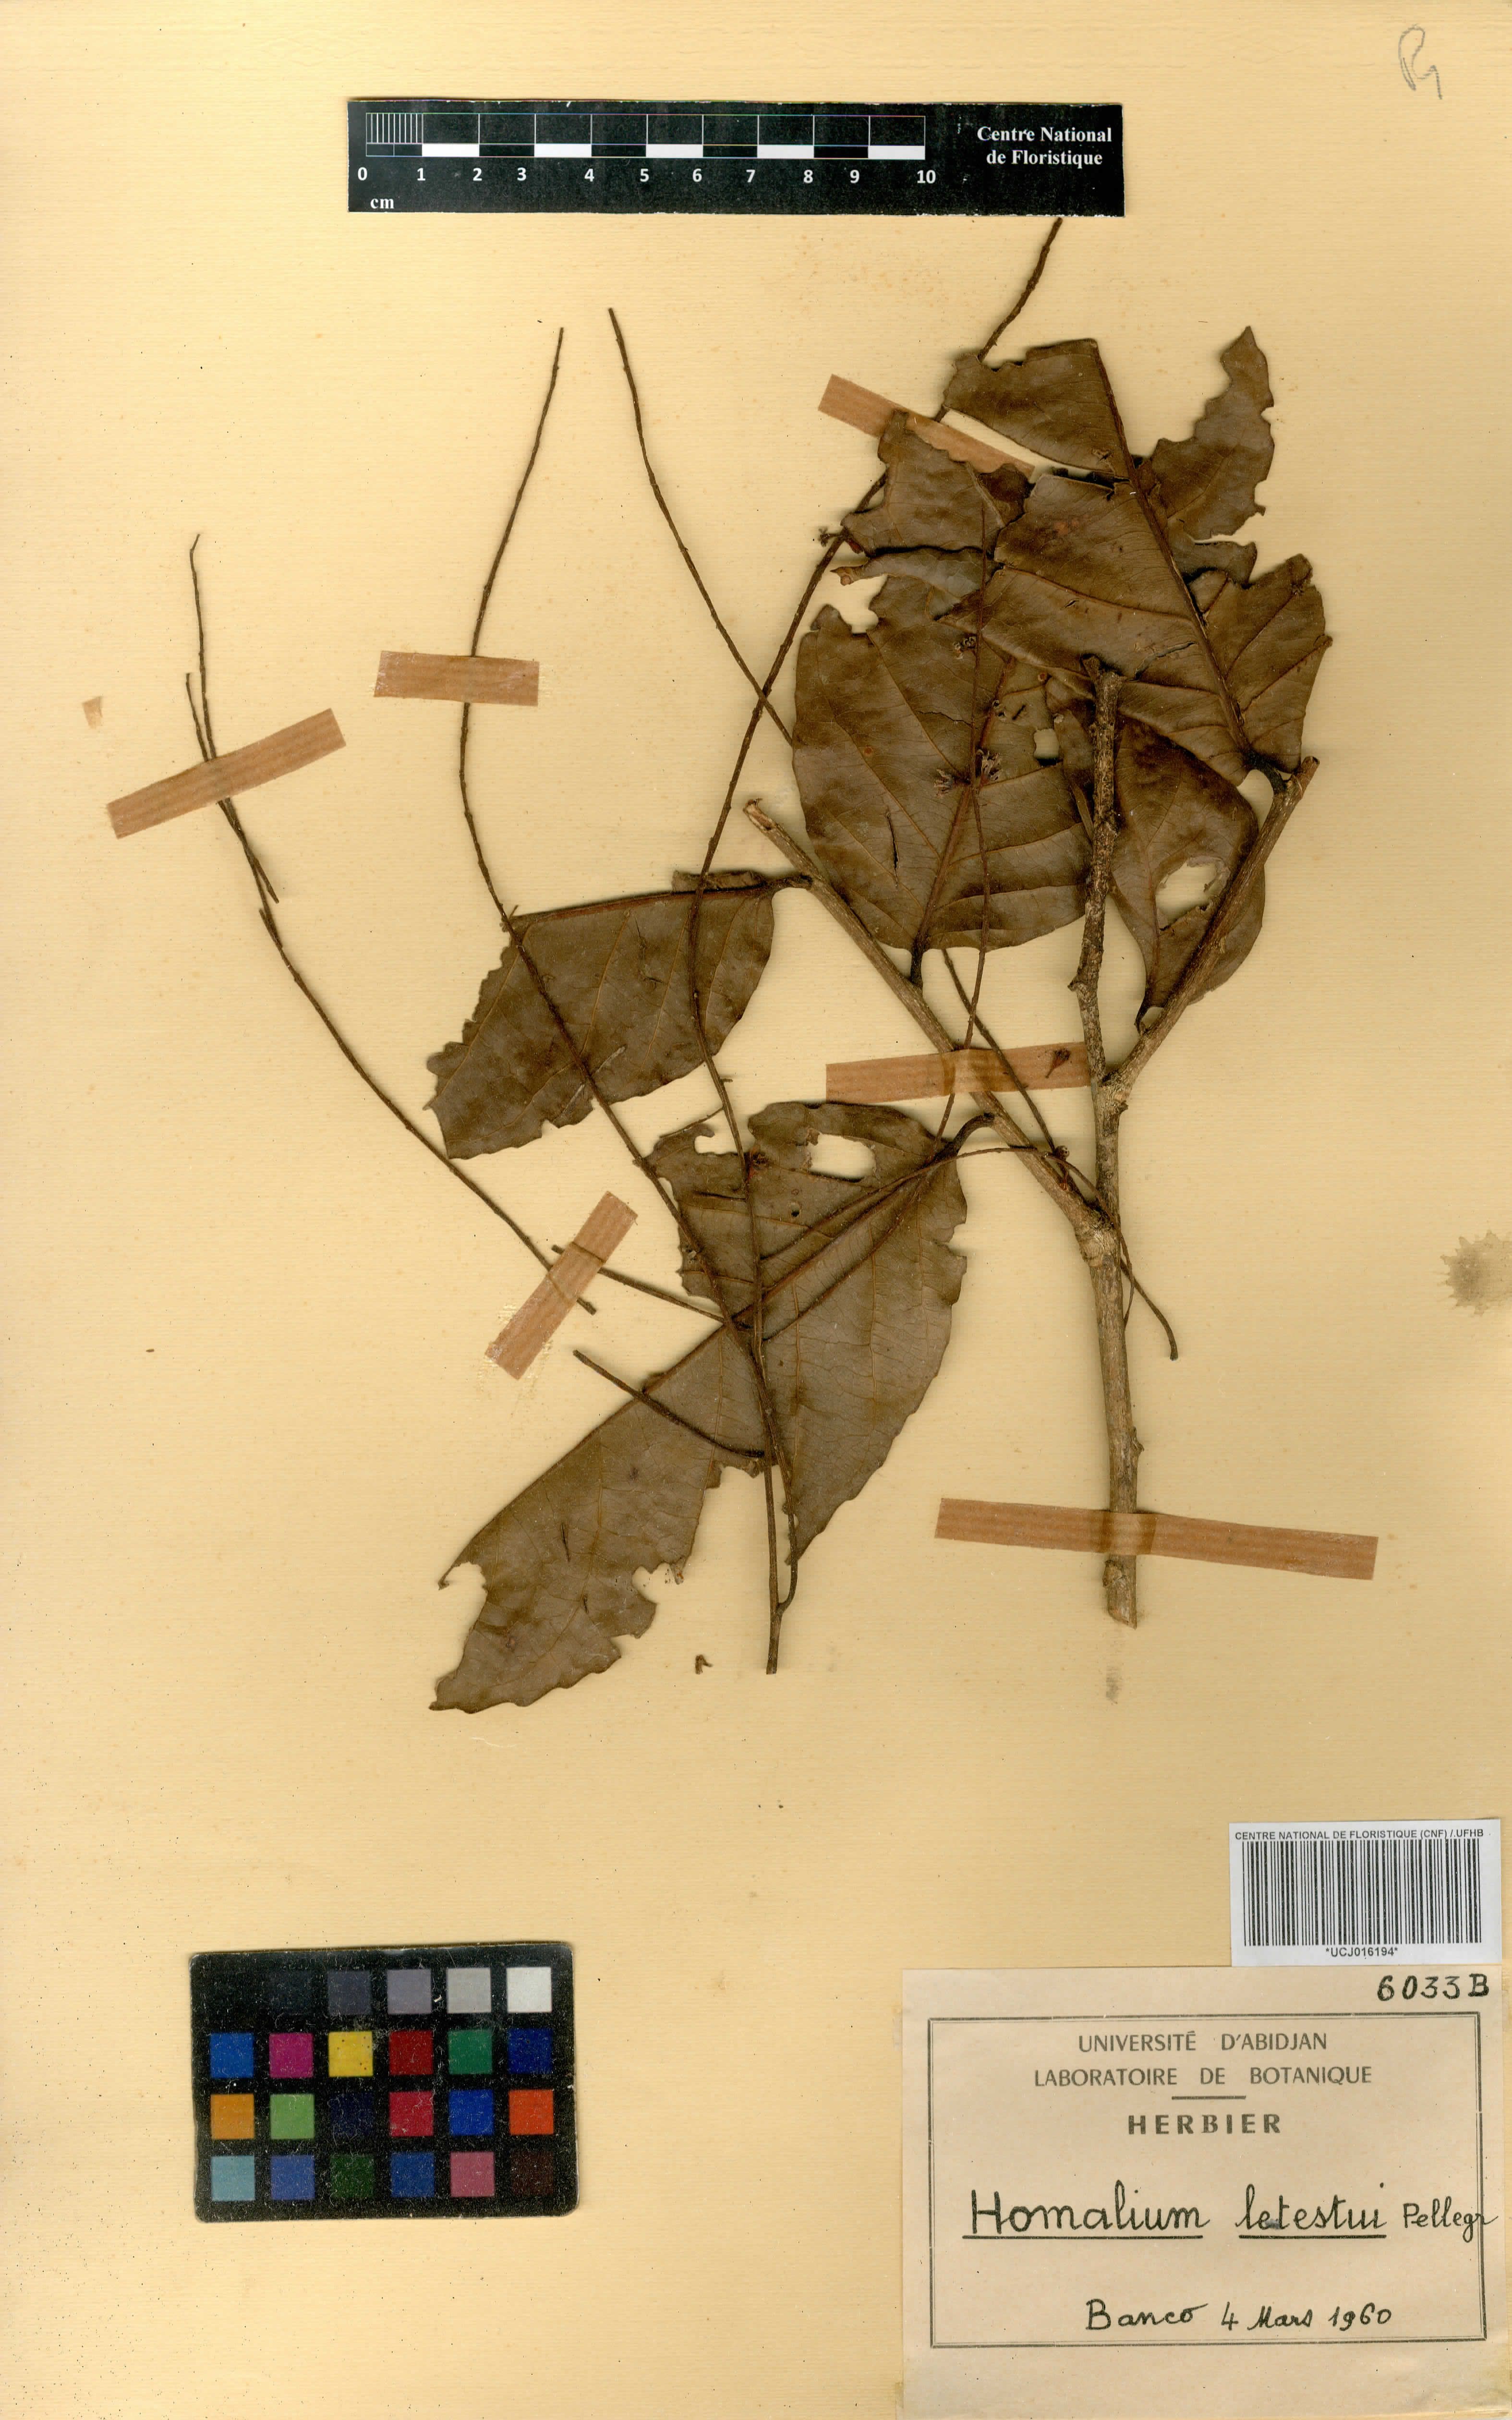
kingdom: Plantae
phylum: Tracheophyta
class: Magnoliopsida
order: Malpighiales
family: Salicaceae
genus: Homalium
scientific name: Homalium letestui
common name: African homalium
